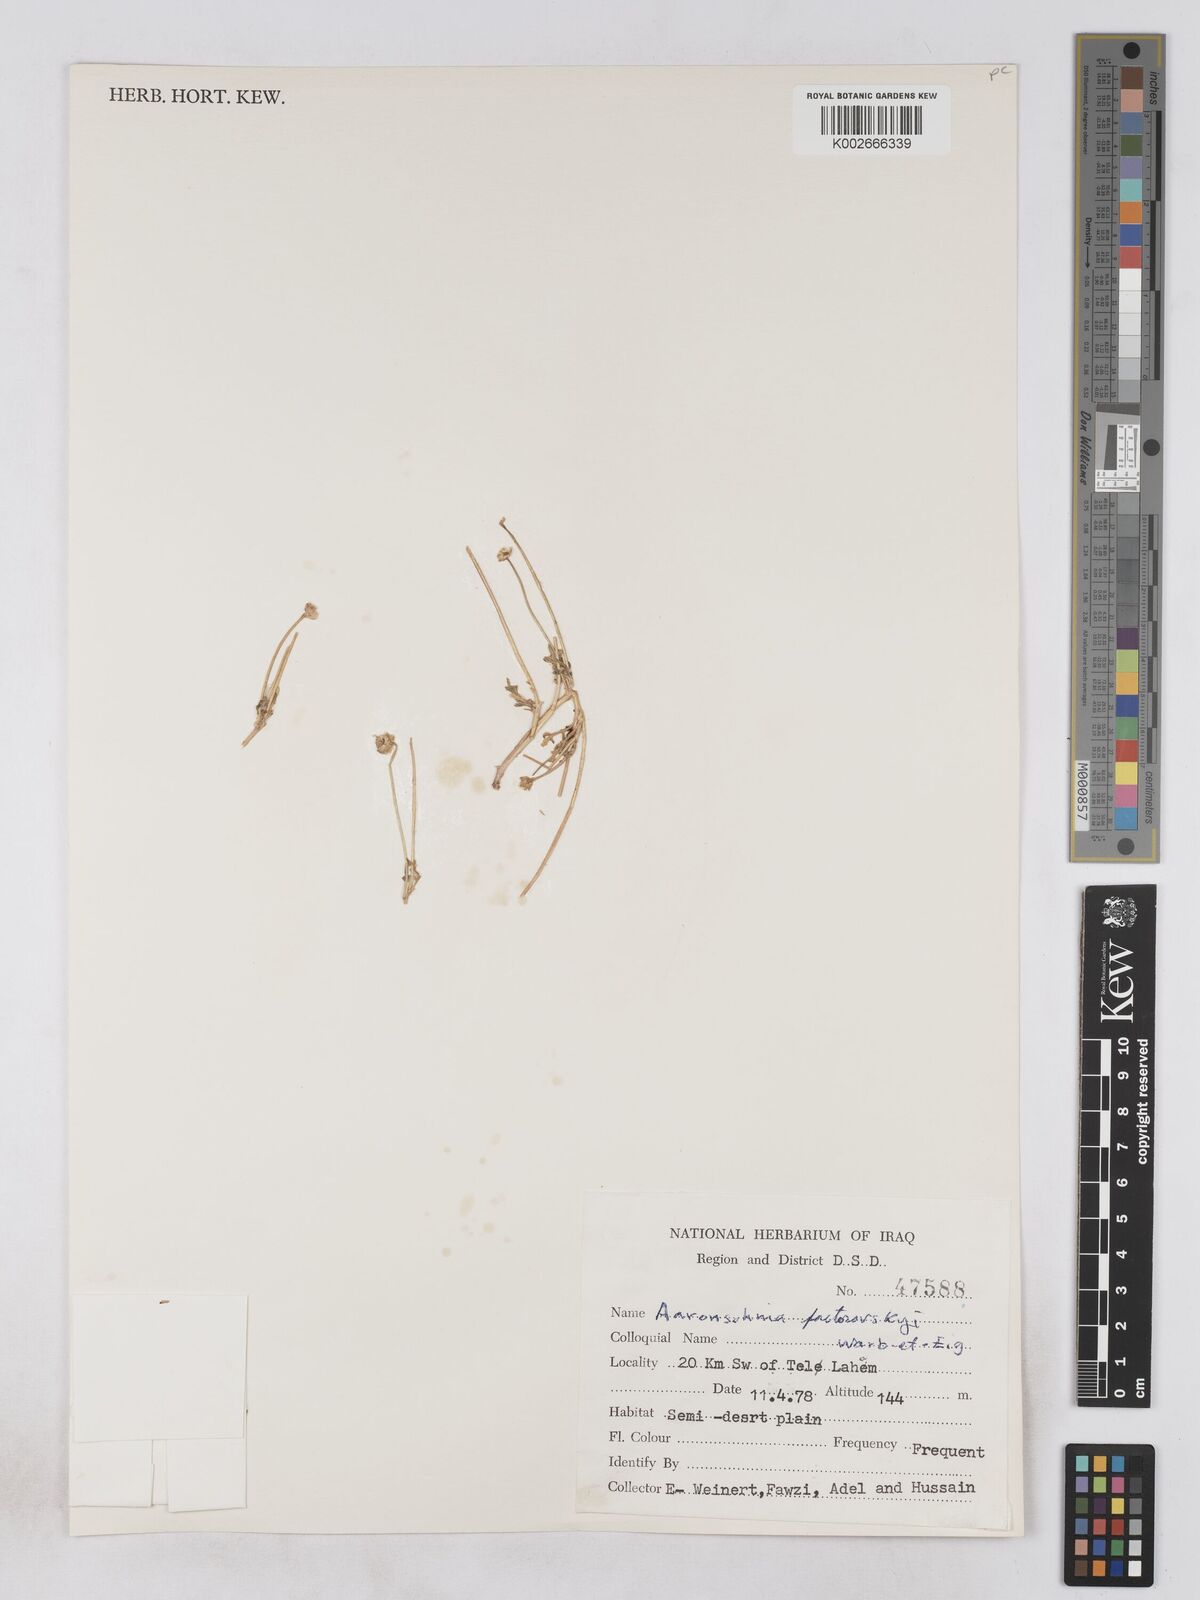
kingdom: Plantae
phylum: Tracheophyta
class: Magnoliopsida
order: Asterales
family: Asteraceae
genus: Otoglyphis
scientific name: Otoglyphis factorovskyi
